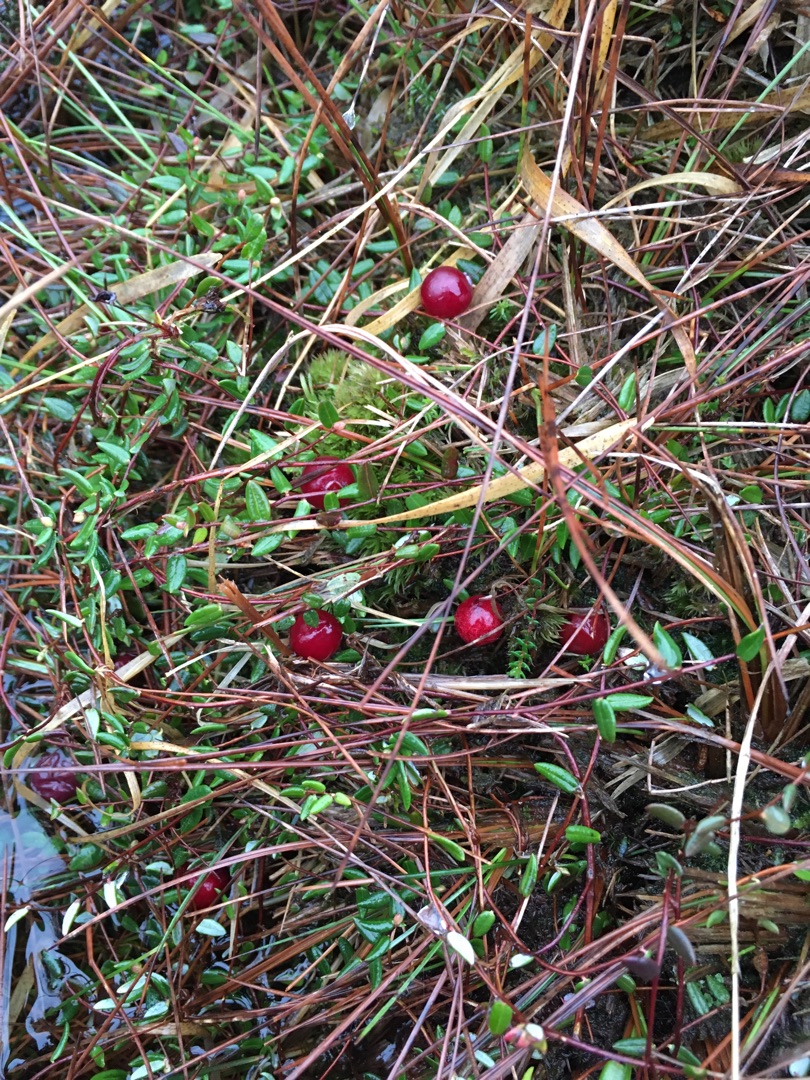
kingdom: Plantae
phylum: Tracheophyta
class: Magnoliopsida
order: Ericales
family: Ericaceae
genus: Vaccinium
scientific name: Vaccinium oxycoccos
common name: Tranebær
